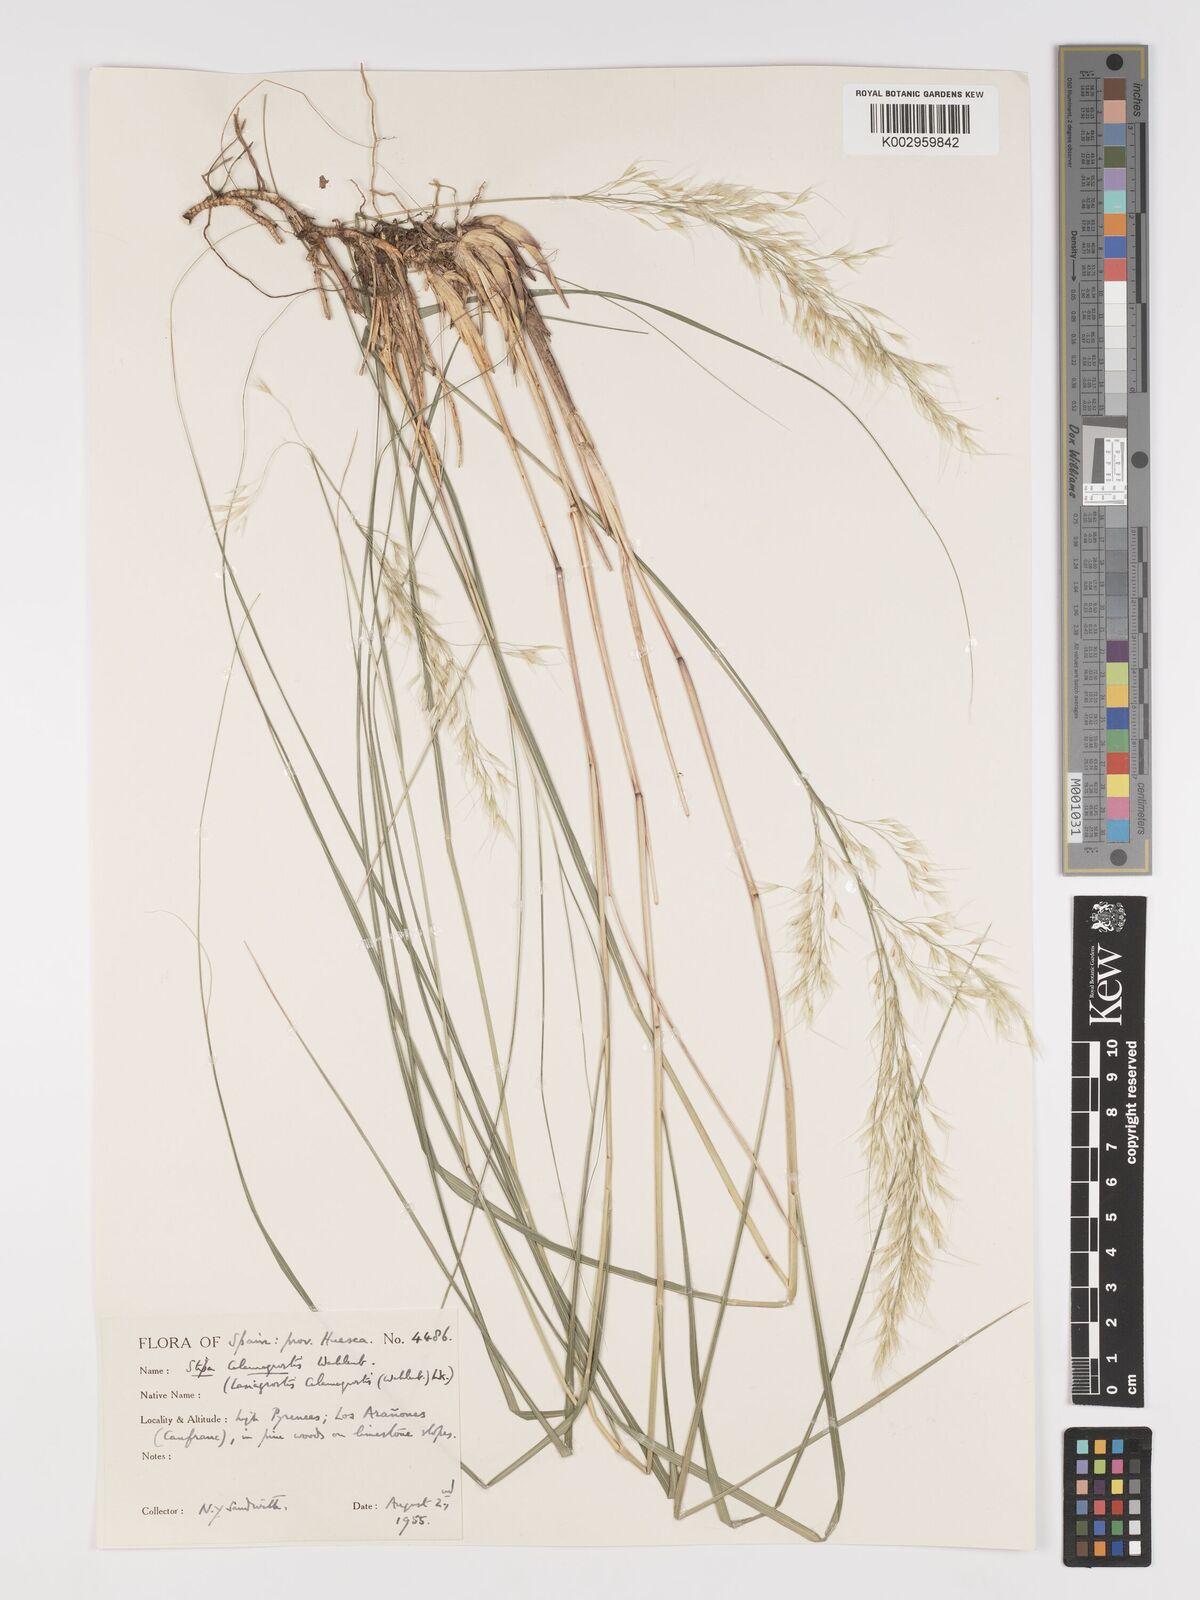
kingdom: Plantae
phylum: Tracheophyta
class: Liliopsida
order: Poales
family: Poaceae
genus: Achnatherum
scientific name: Achnatherum calamagrostis
